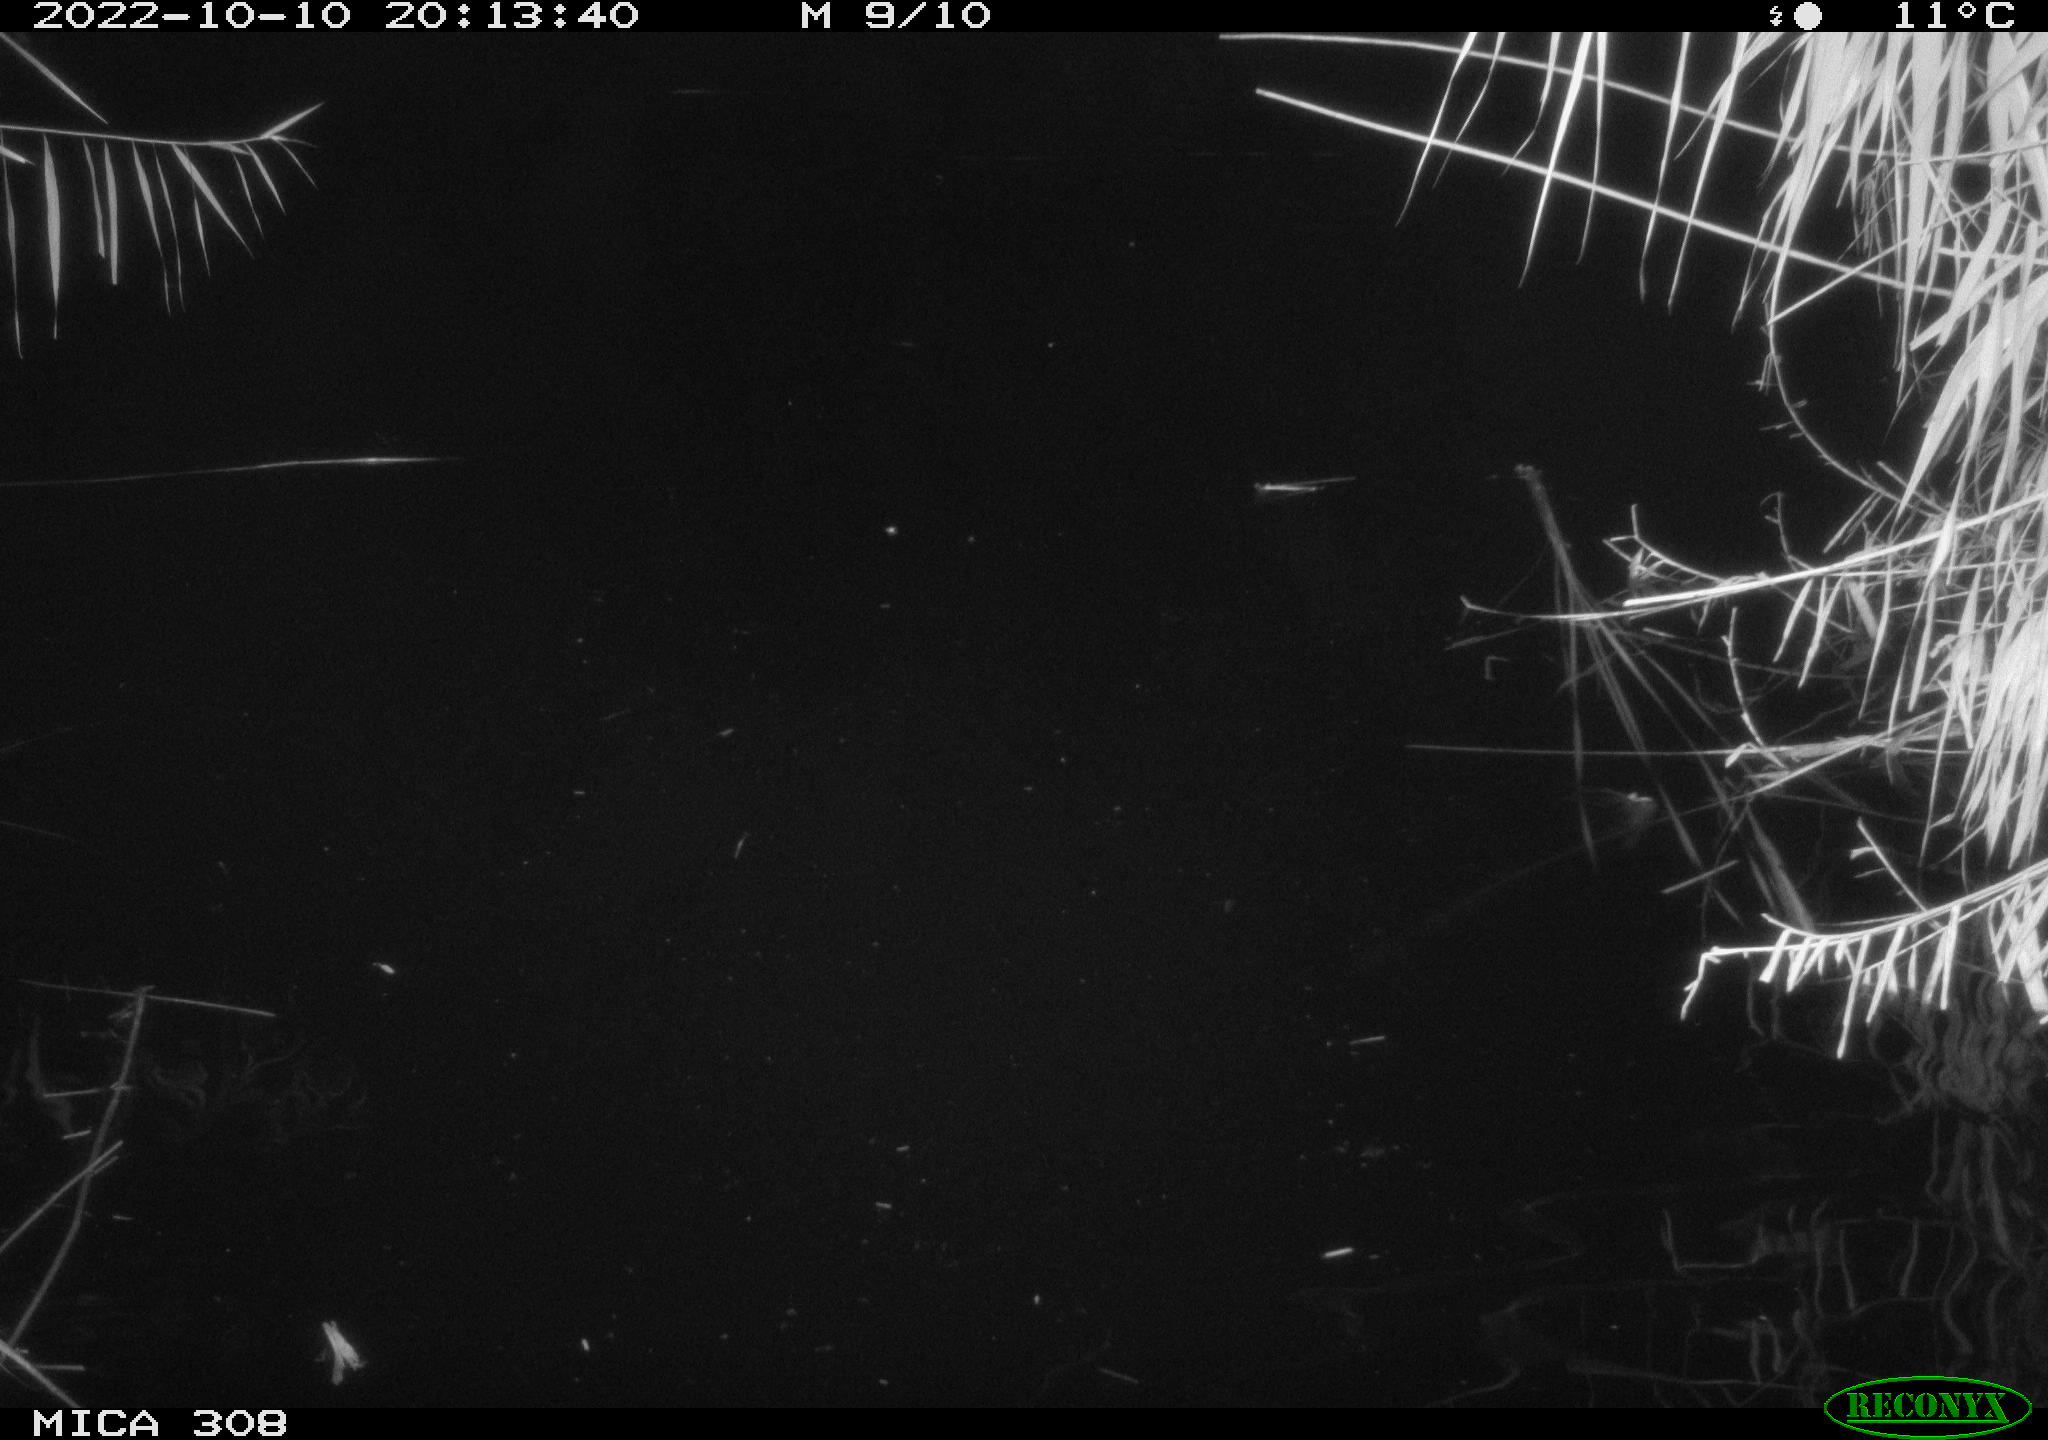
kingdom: Animalia
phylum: Chordata
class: Mammalia
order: Rodentia
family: Cricetidae
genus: Ondatra
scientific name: Ondatra zibethicus
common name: Muskrat
